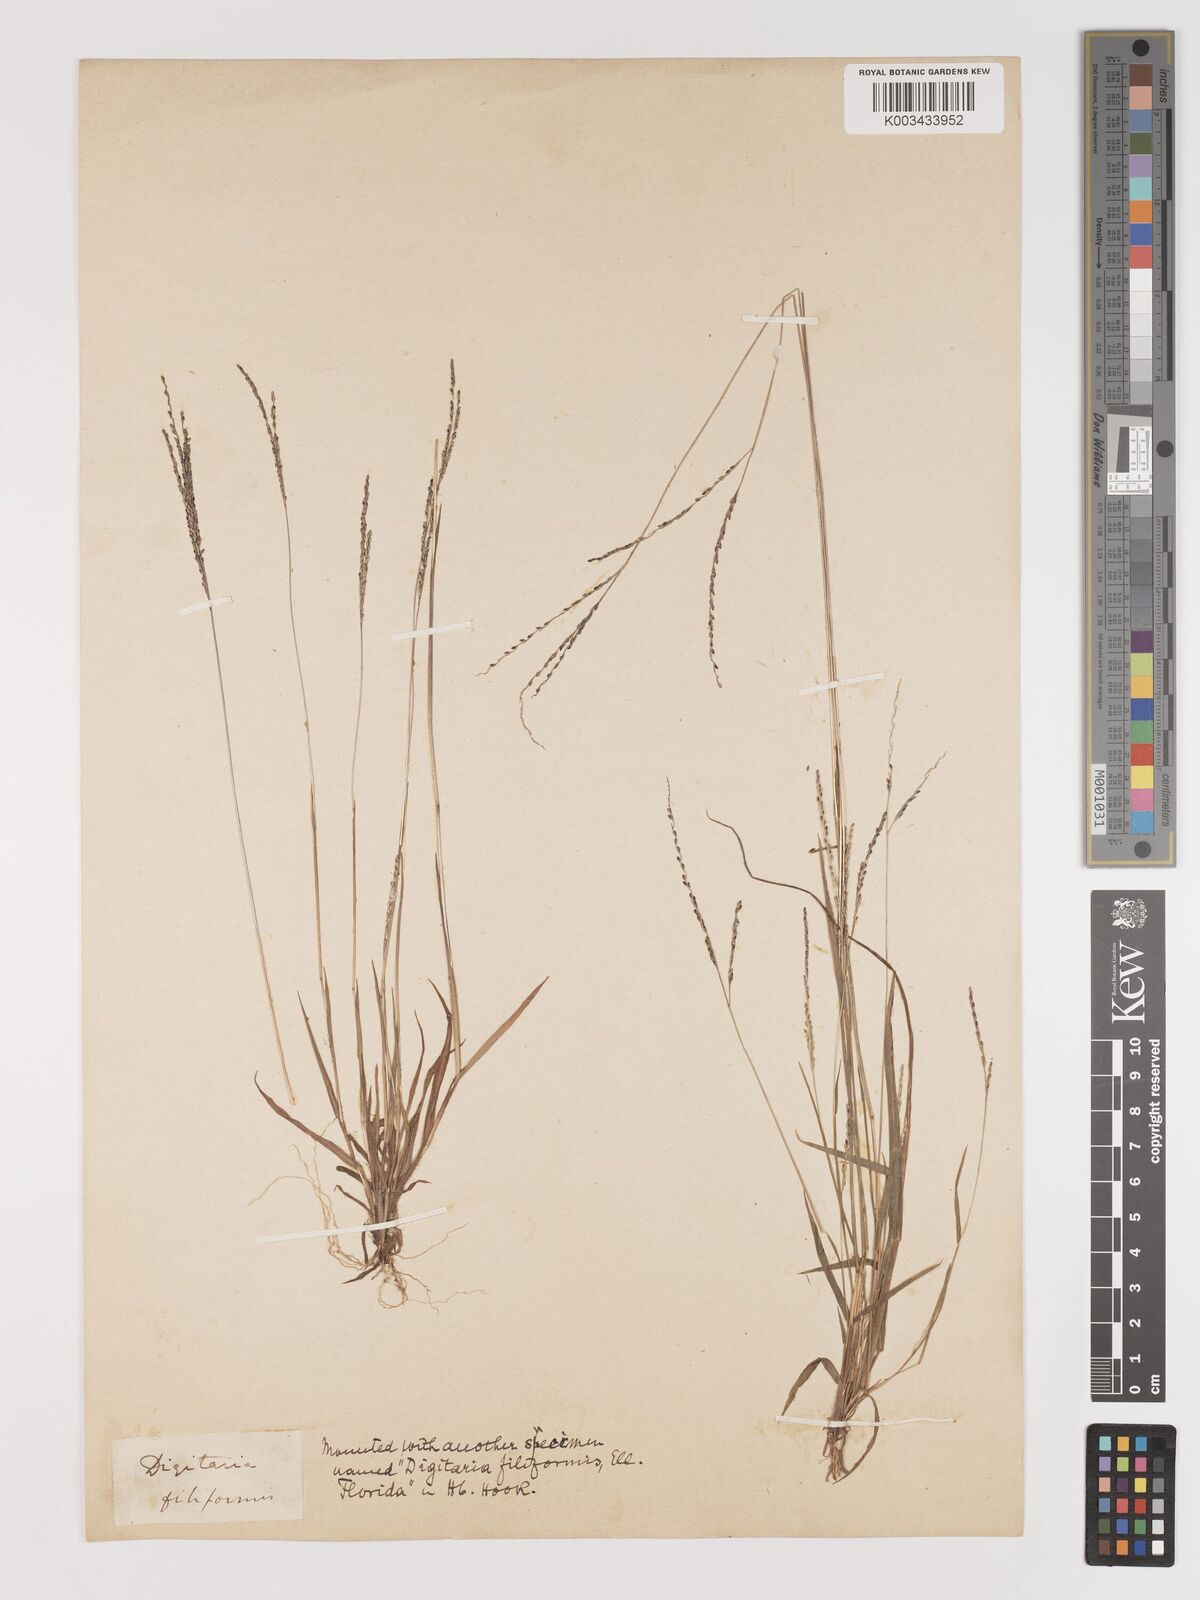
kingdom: Plantae
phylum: Tracheophyta
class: Liliopsida
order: Poales
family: Poaceae
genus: Digitaria
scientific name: Digitaria filiformis
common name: Slender crabgrass
